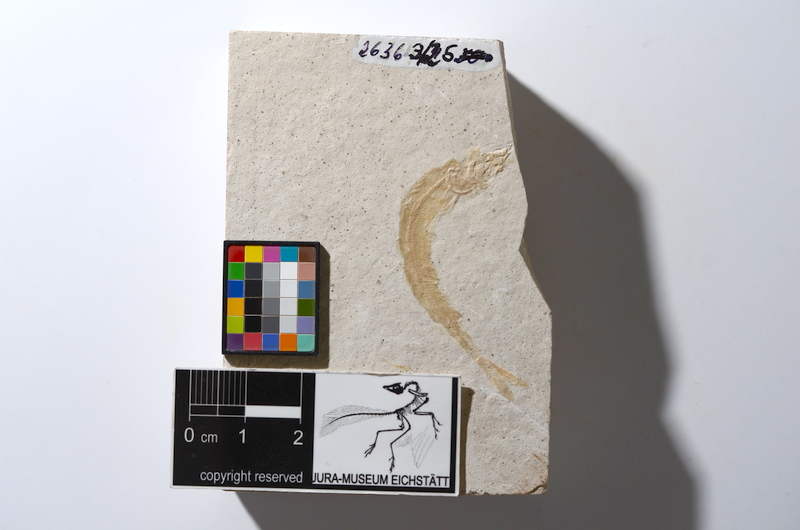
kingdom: Animalia
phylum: Chordata
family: Aspidorhynchidae
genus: Belonostomus
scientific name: Belonostomus
